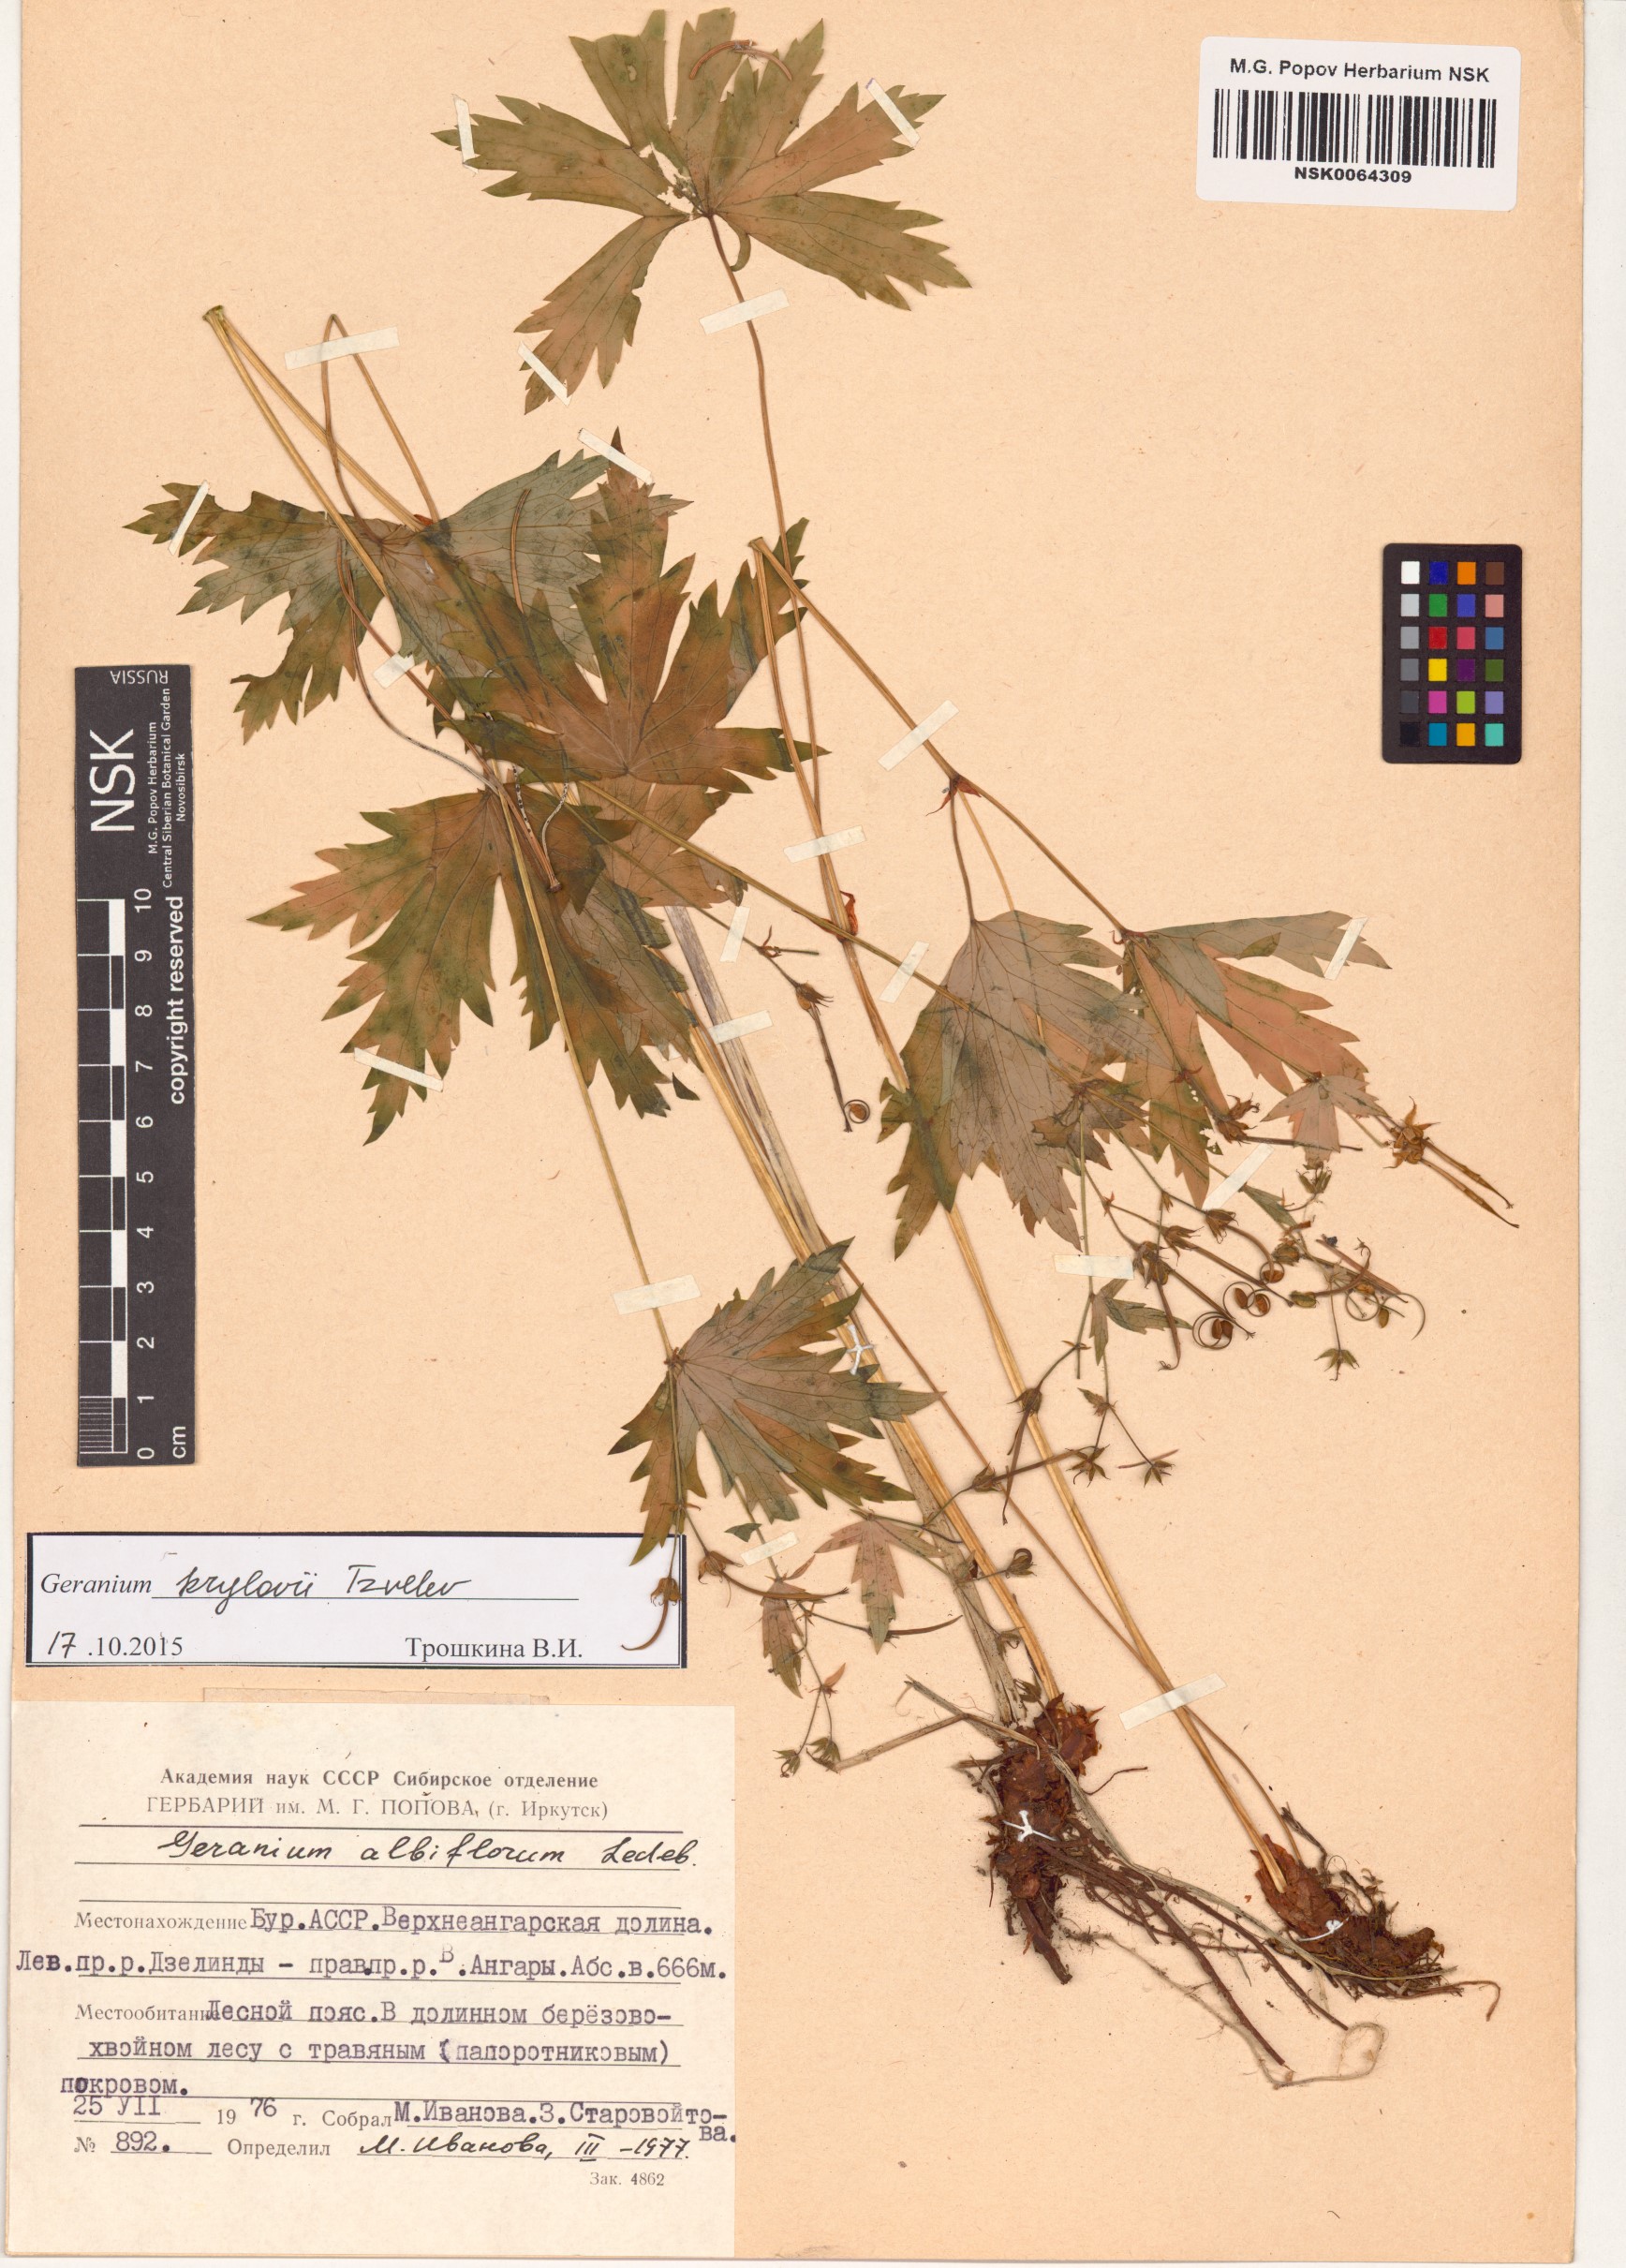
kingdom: Plantae
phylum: Tracheophyta
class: Magnoliopsida
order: Geraniales
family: Geraniaceae
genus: Geranium
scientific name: Geranium sylvaticum
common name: Wood crane's-bill
